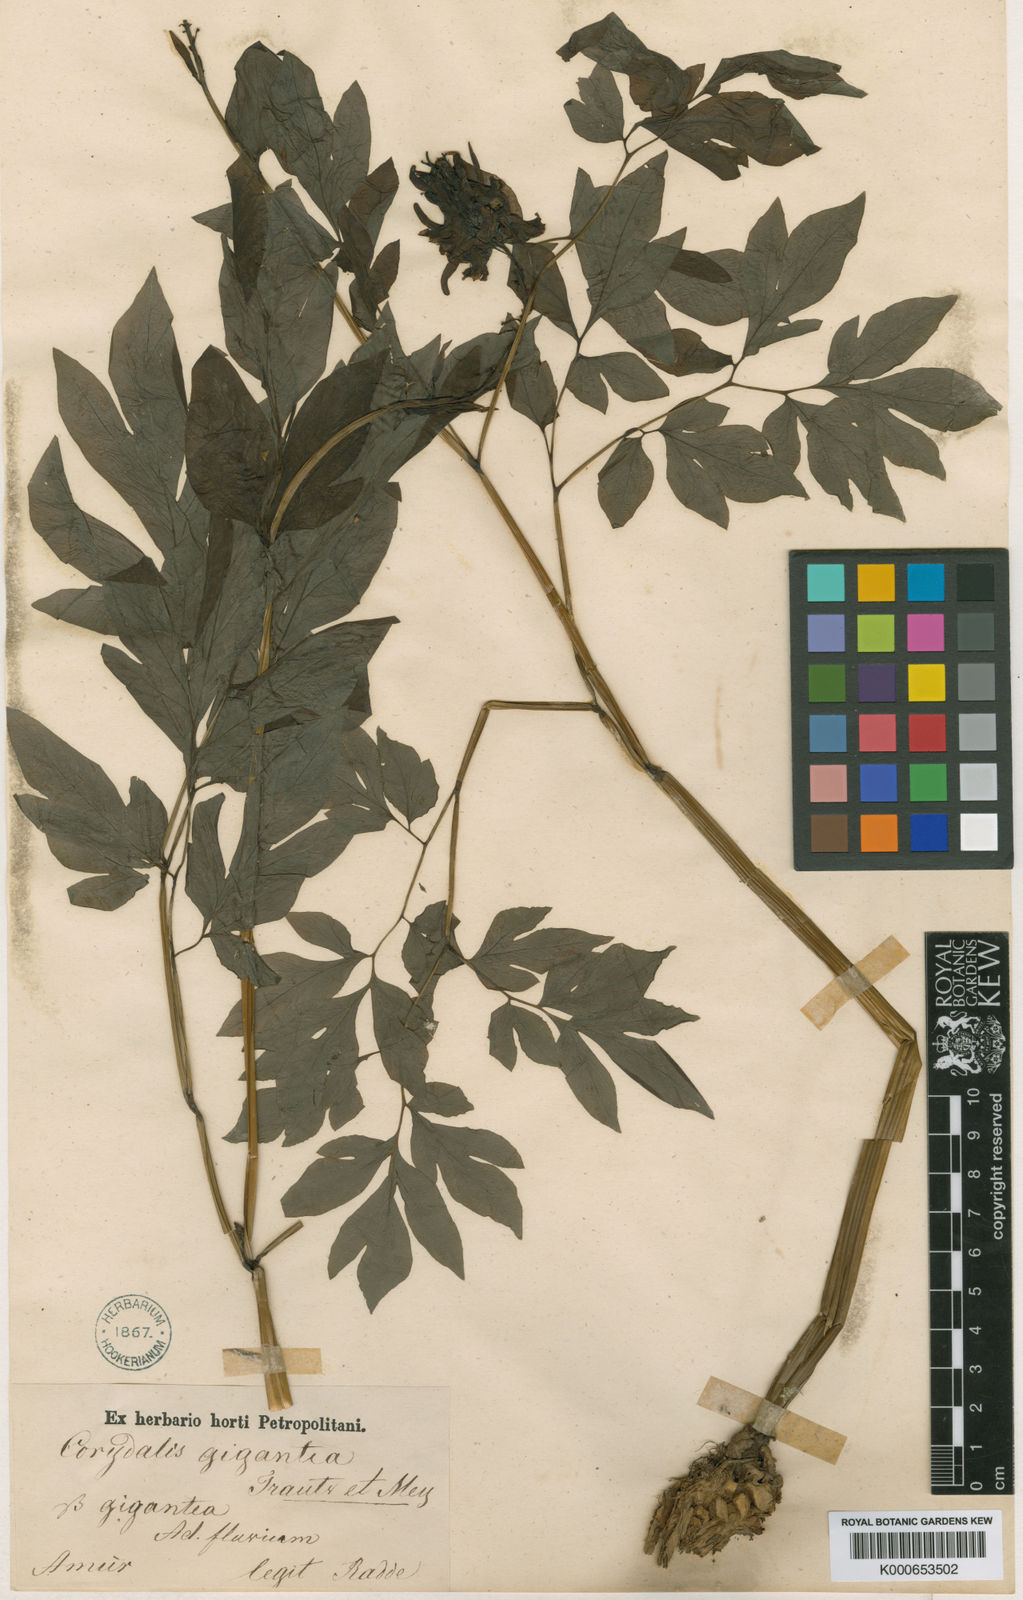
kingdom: Plantae
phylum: Tracheophyta
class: Magnoliopsida
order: Ranunculales
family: Papaveraceae
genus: Corydalis
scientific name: Corydalis gigantea
